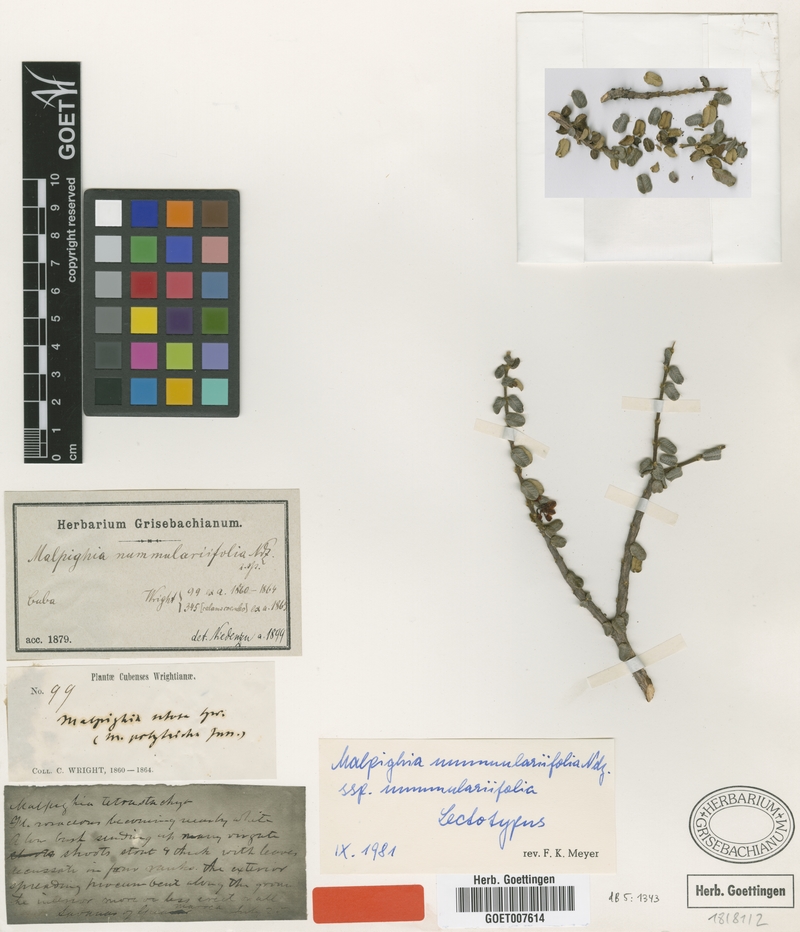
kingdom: Plantae
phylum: Tracheophyta
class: Magnoliopsida
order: Malpighiales
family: Malpighiaceae
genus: Malpighia
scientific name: Malpighia nummulariifolia
